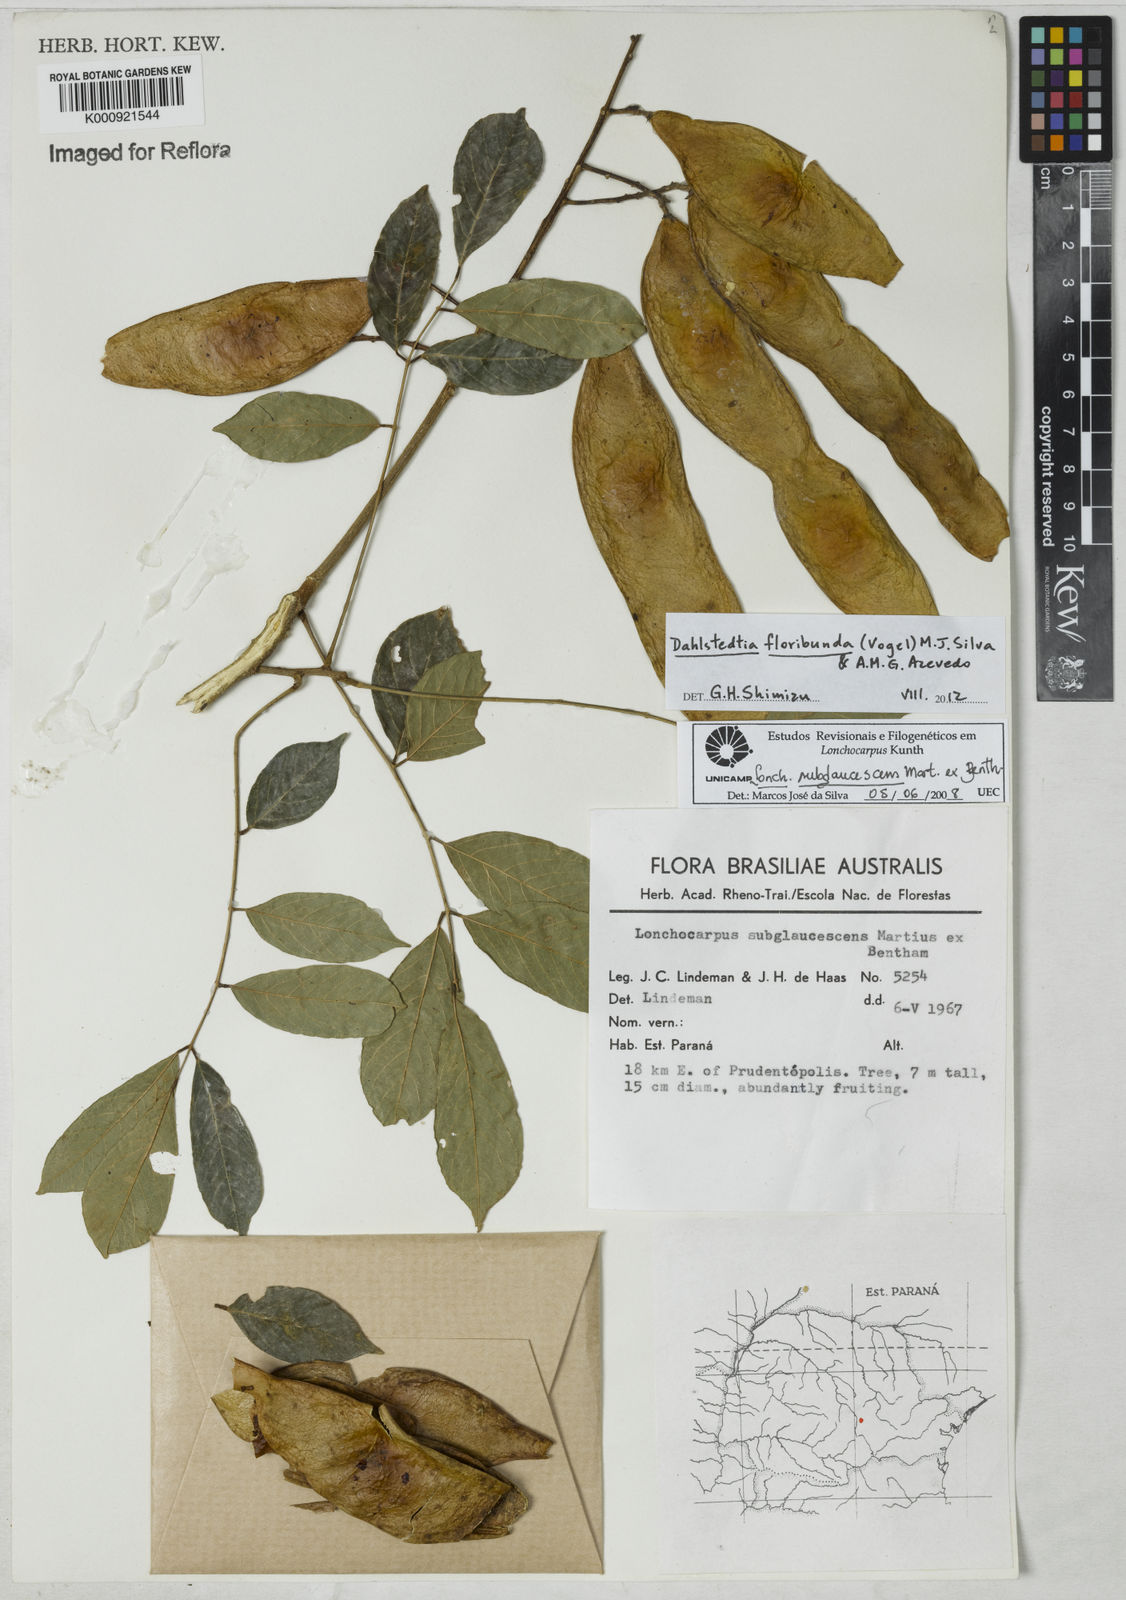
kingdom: Plantae
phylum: Tracheophyta
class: Magnoliopsida
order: Fabales
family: Fabaceae
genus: Dahlstedtia
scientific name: Dahlstedtia floribunda
